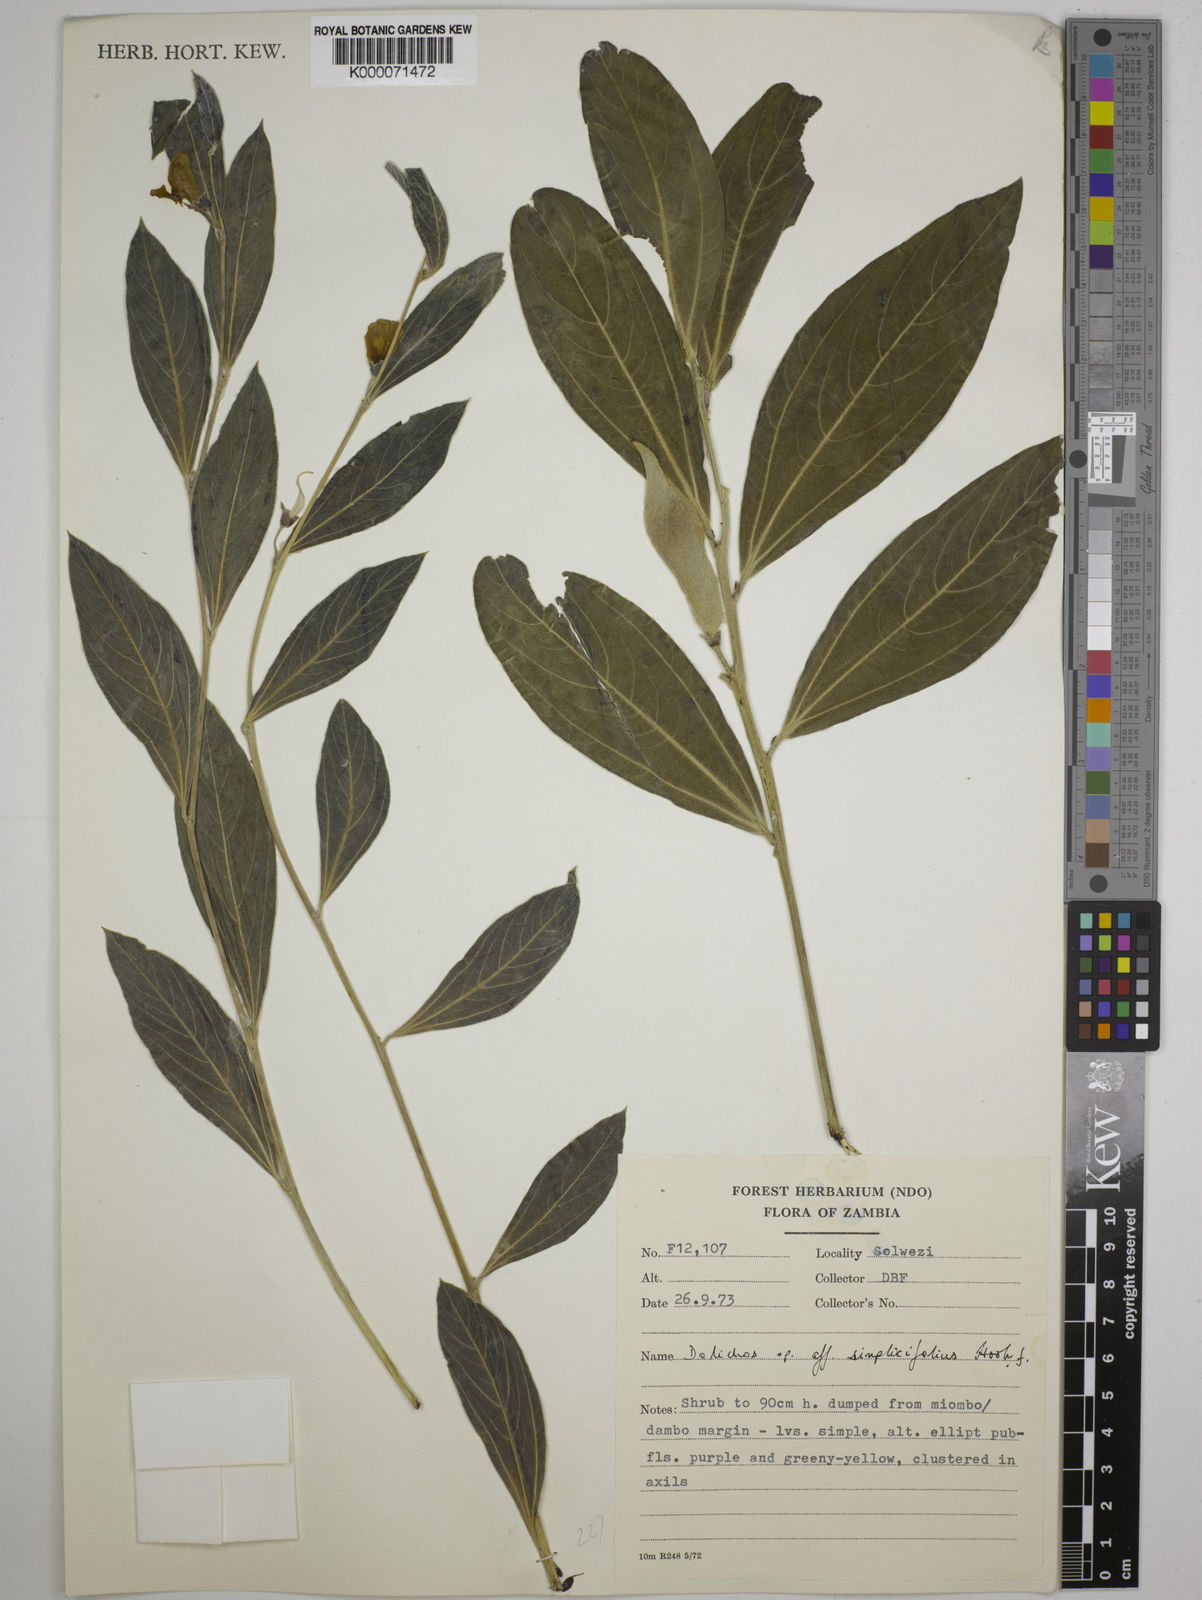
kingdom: Plantae
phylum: Tracheophyta
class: Magnoliopsida
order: Fabales
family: Fabaceae
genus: Dolichos
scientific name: Dolichos simplicifolius
